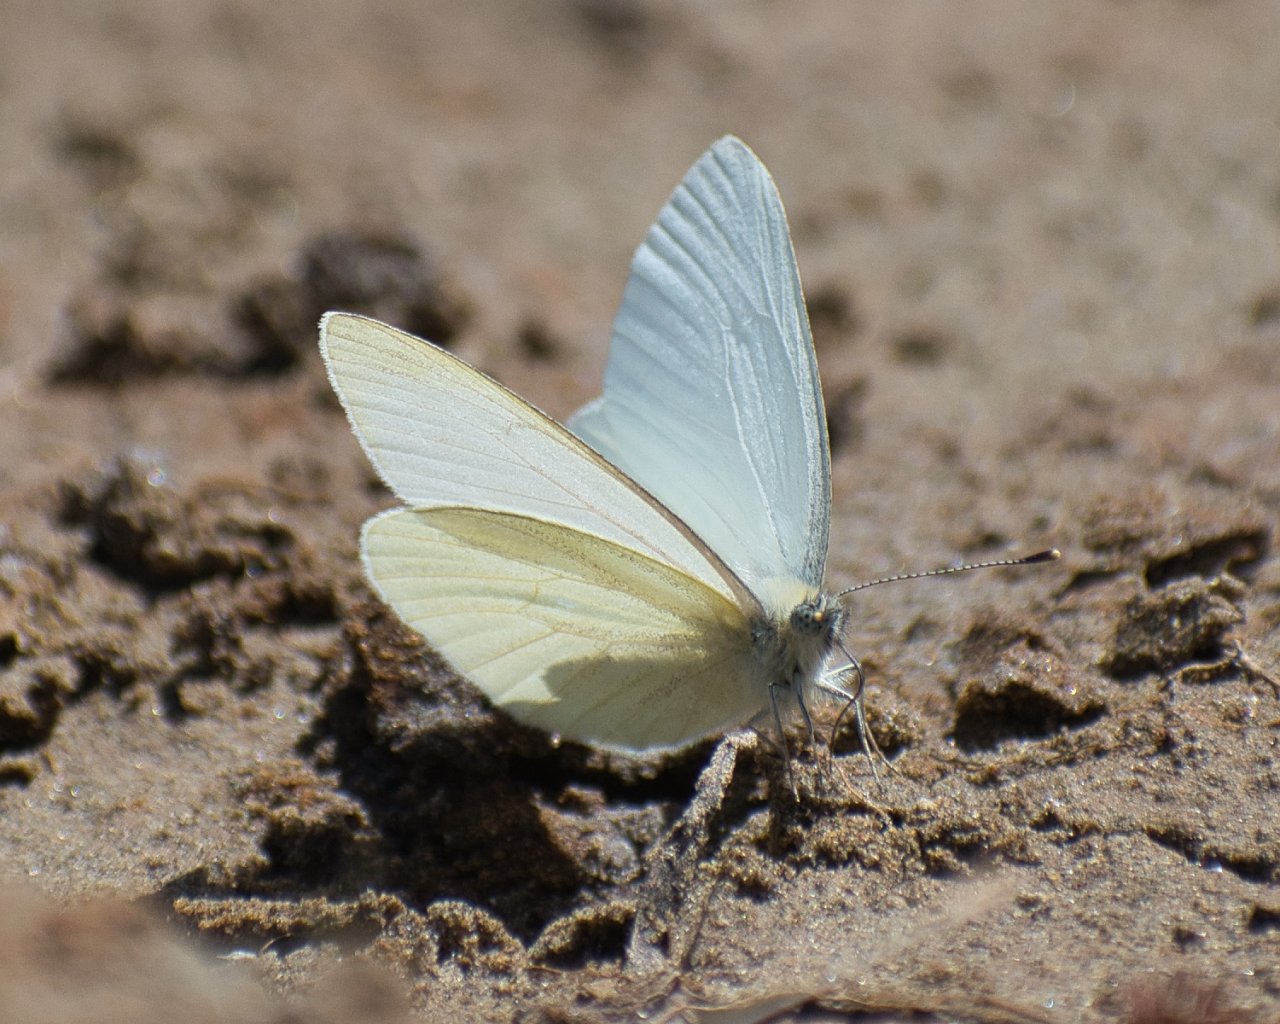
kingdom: Animalia
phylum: Arthropoda
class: Insecta
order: Lepidoptera
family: Pieridae
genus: Pieris
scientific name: Pieris marginalis
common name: Margined White
